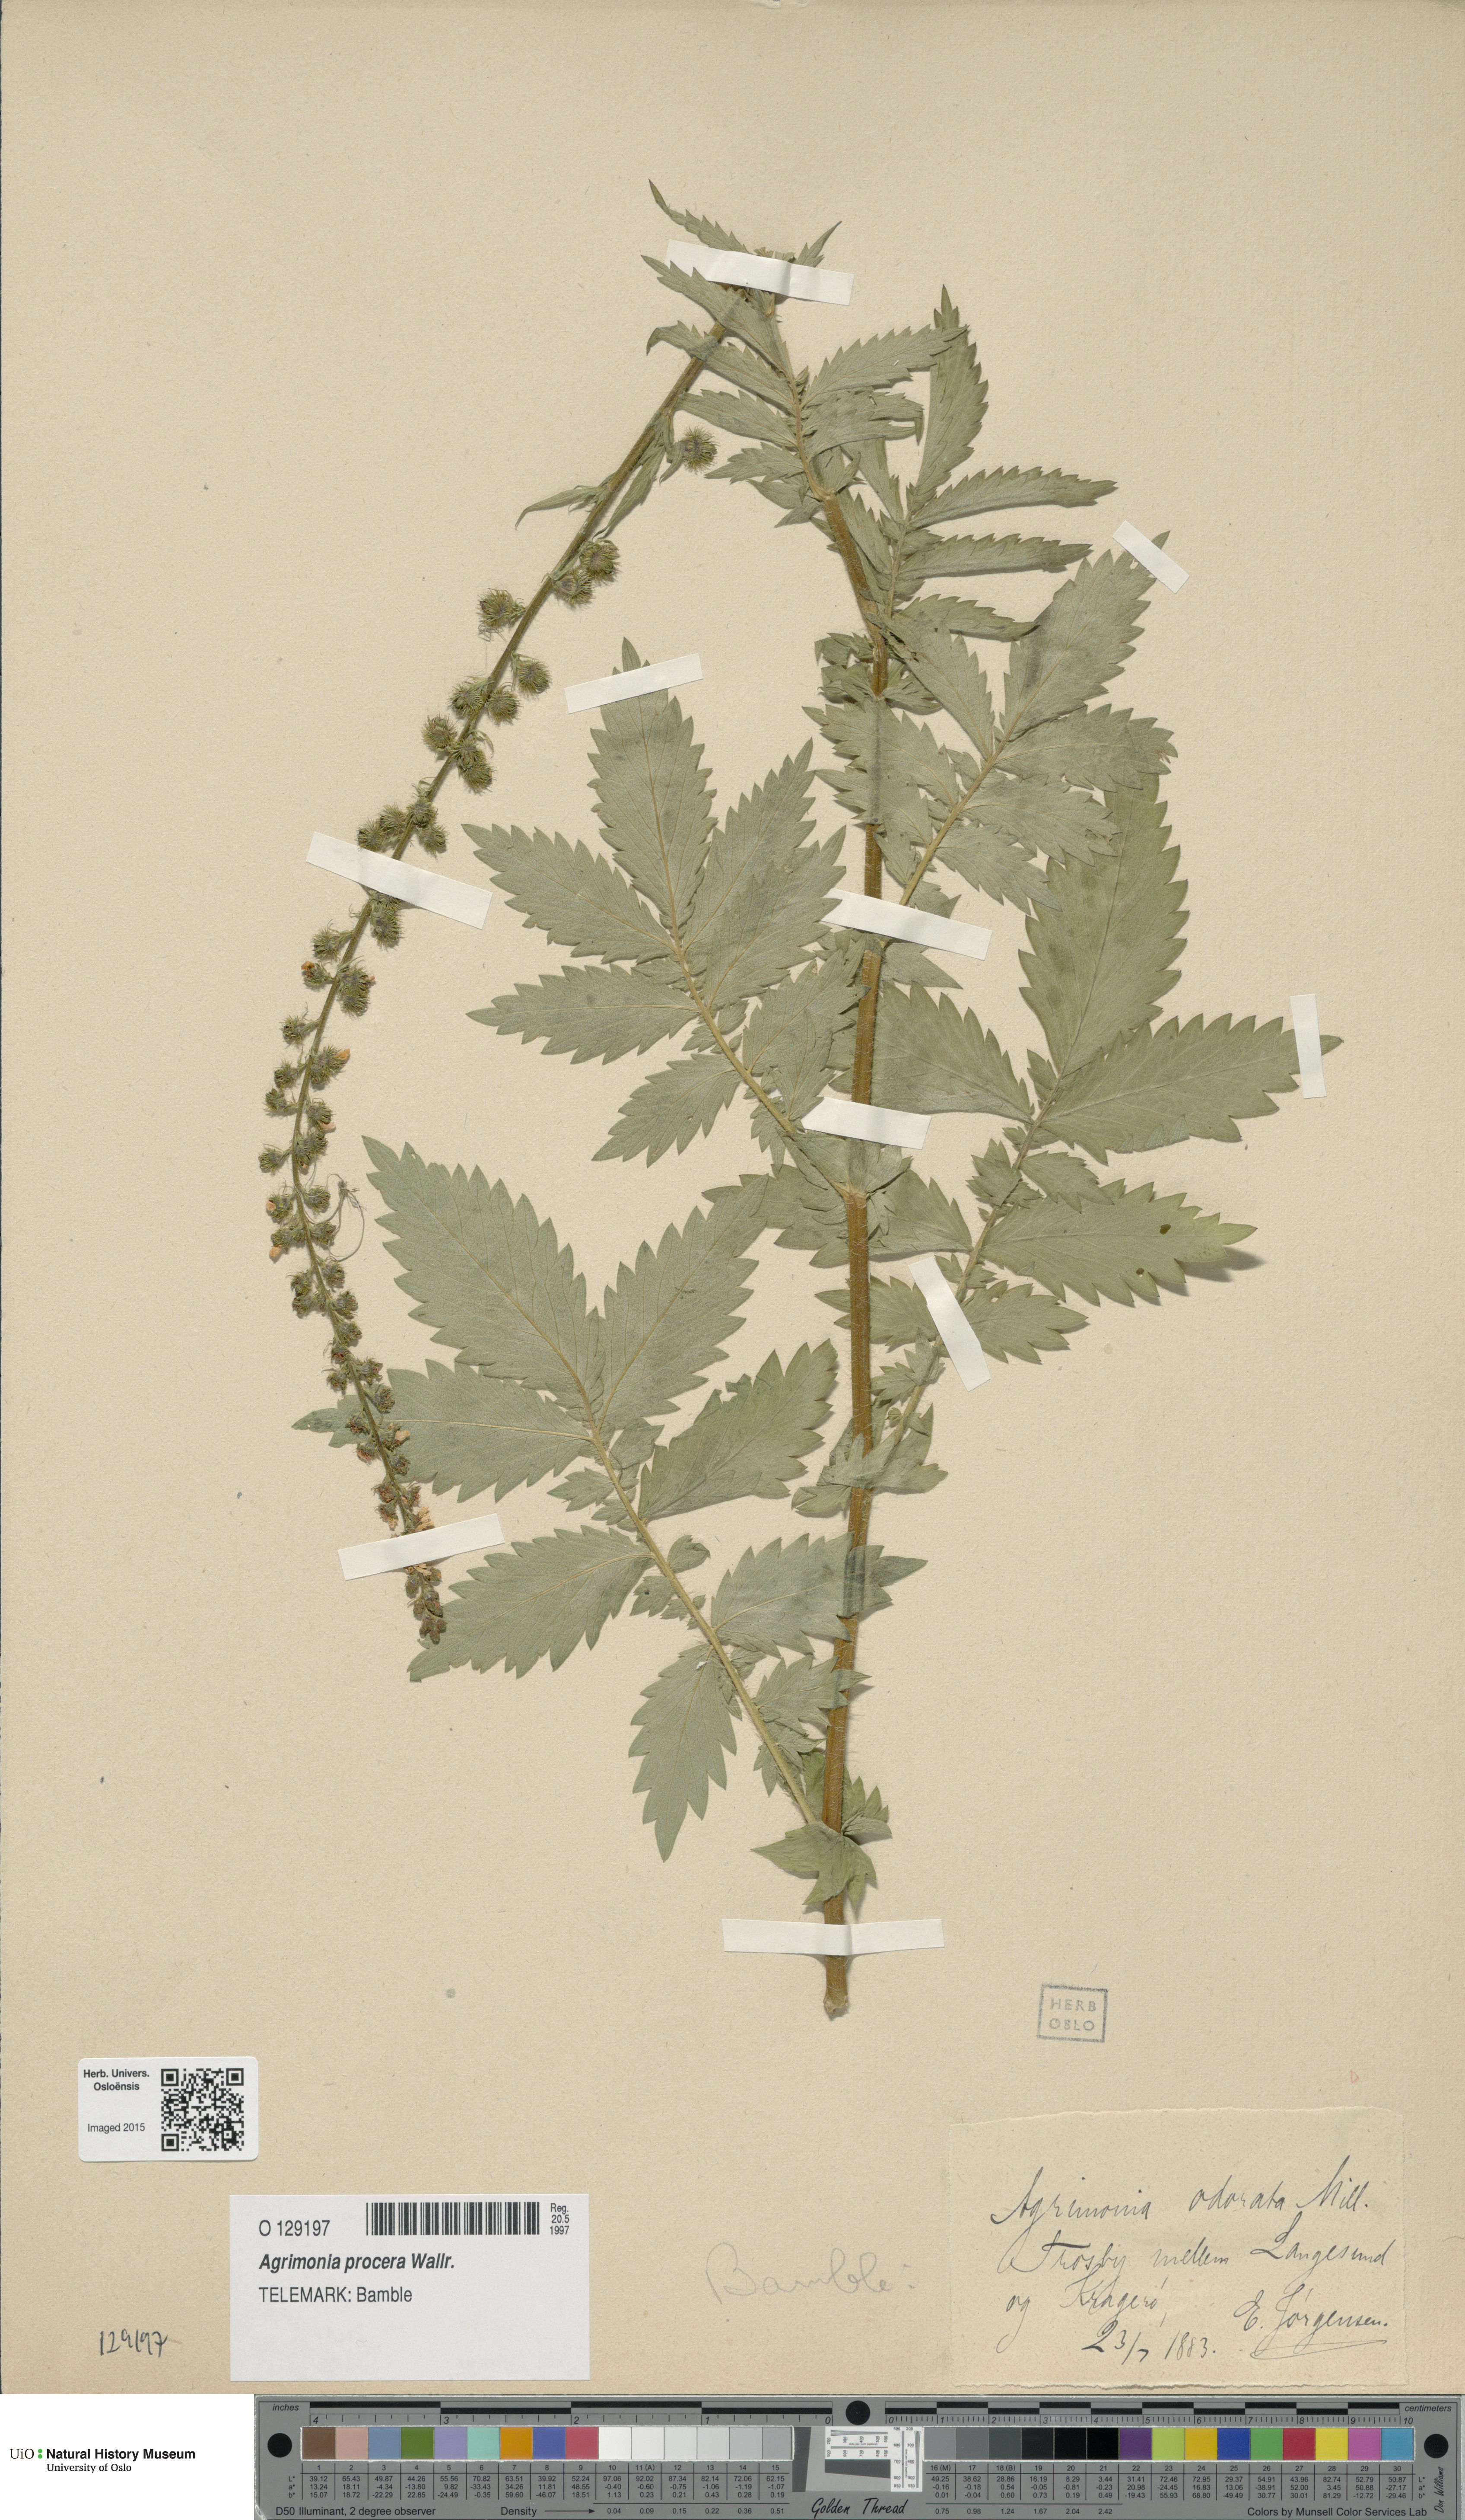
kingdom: Plantae
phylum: Tracheophyta
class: Magnoliopsida
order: Rosales
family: Rosaceae
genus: Agrimonia
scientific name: Agrimonia procera
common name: Fragrant agrimony
